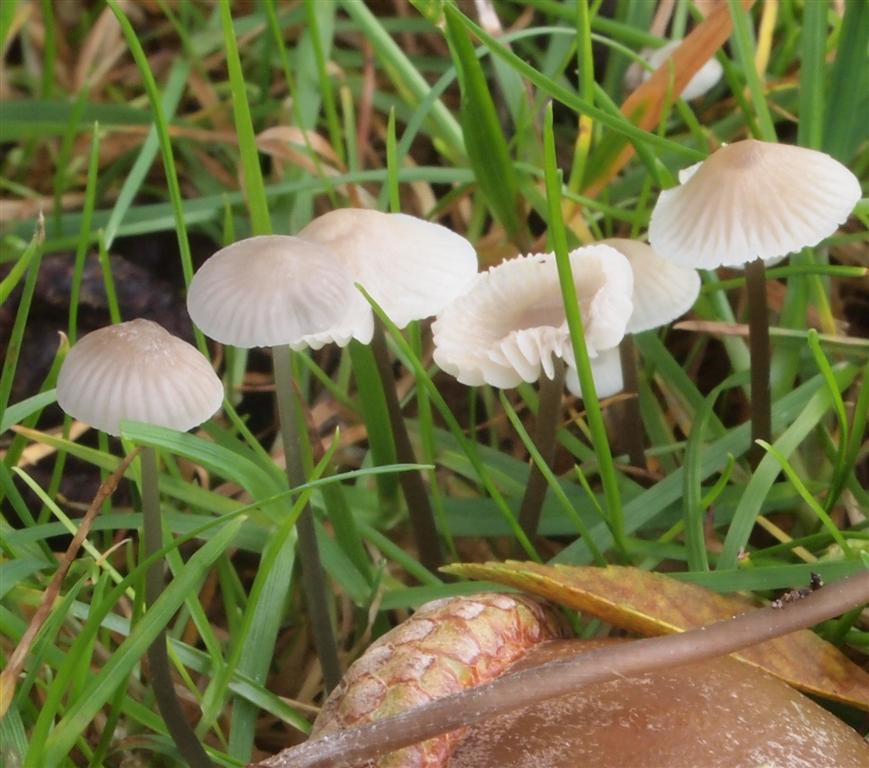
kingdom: Fungi
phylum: Basidiomycota
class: Agaricomycetes
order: Agaricales
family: Mycenaceae
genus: Mycena
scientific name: Mycena flavescens
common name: grågul huesvamp
